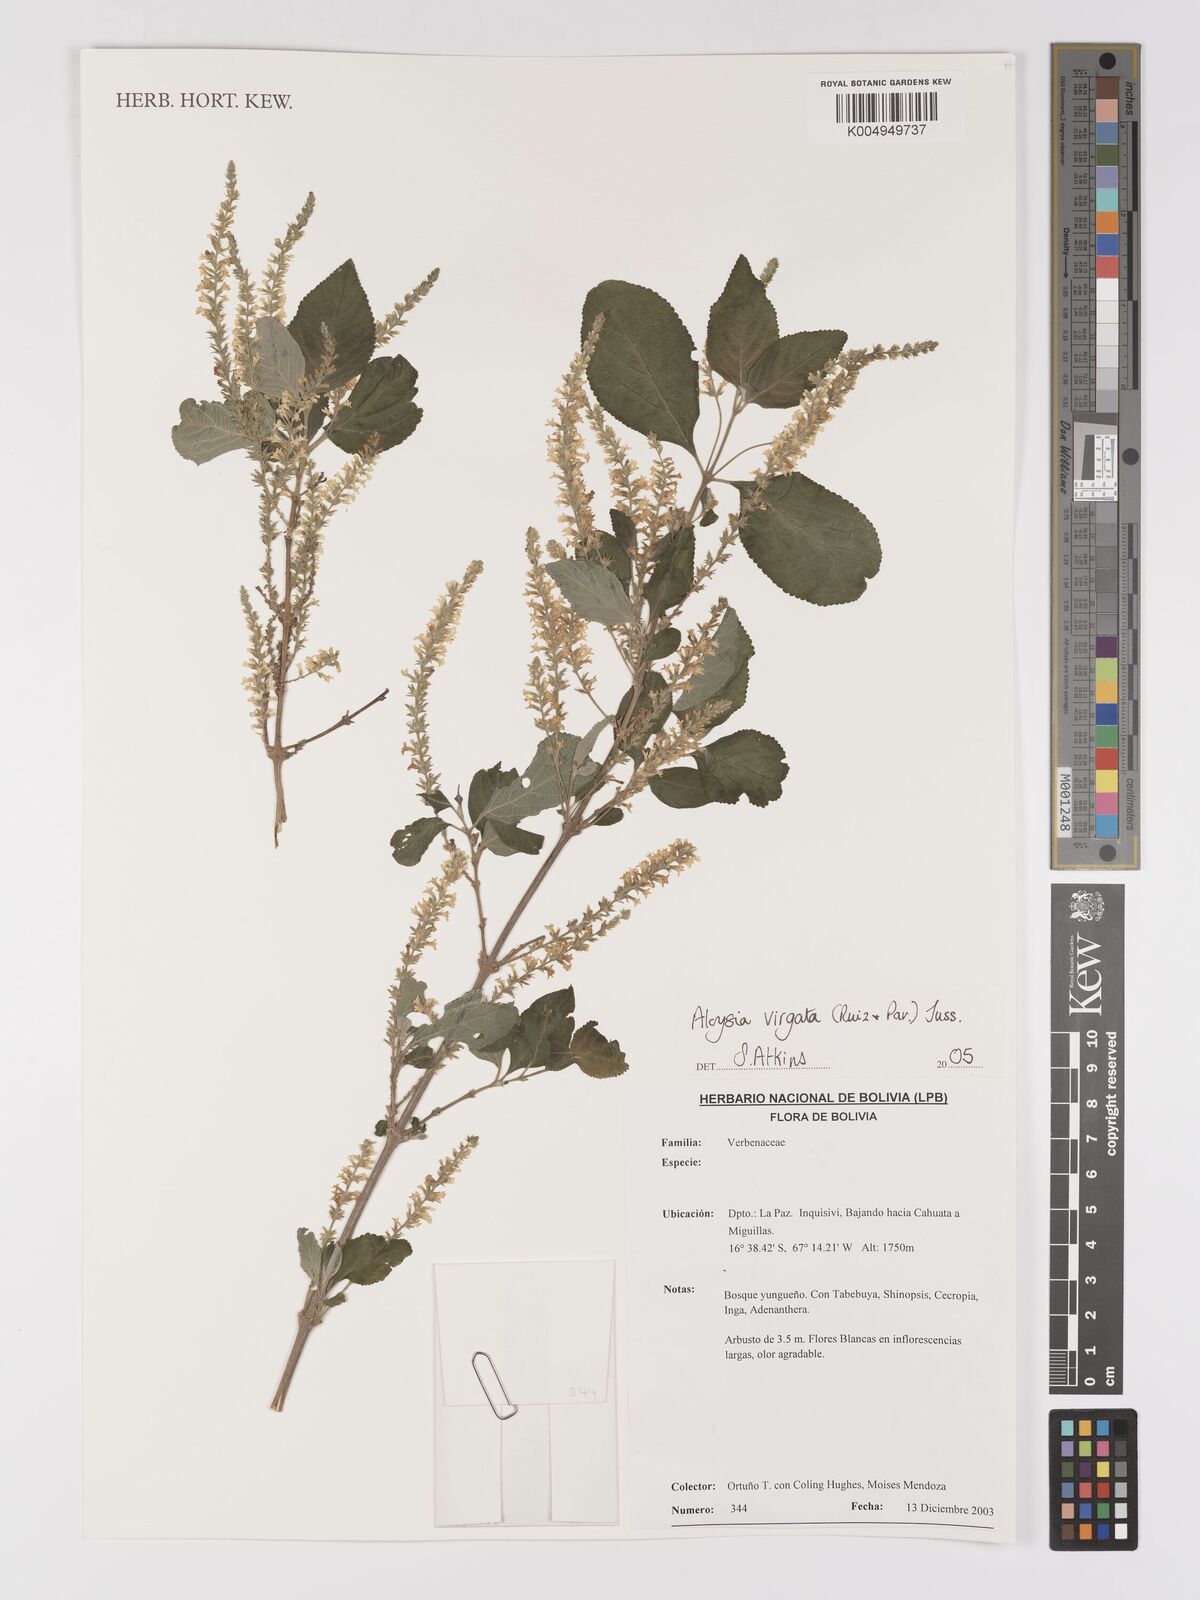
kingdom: Plantae
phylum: Tracheophyta
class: Magnoliopsida
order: Lamiales
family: Verbenaceae
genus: Aloysia
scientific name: Aloysia virgata
